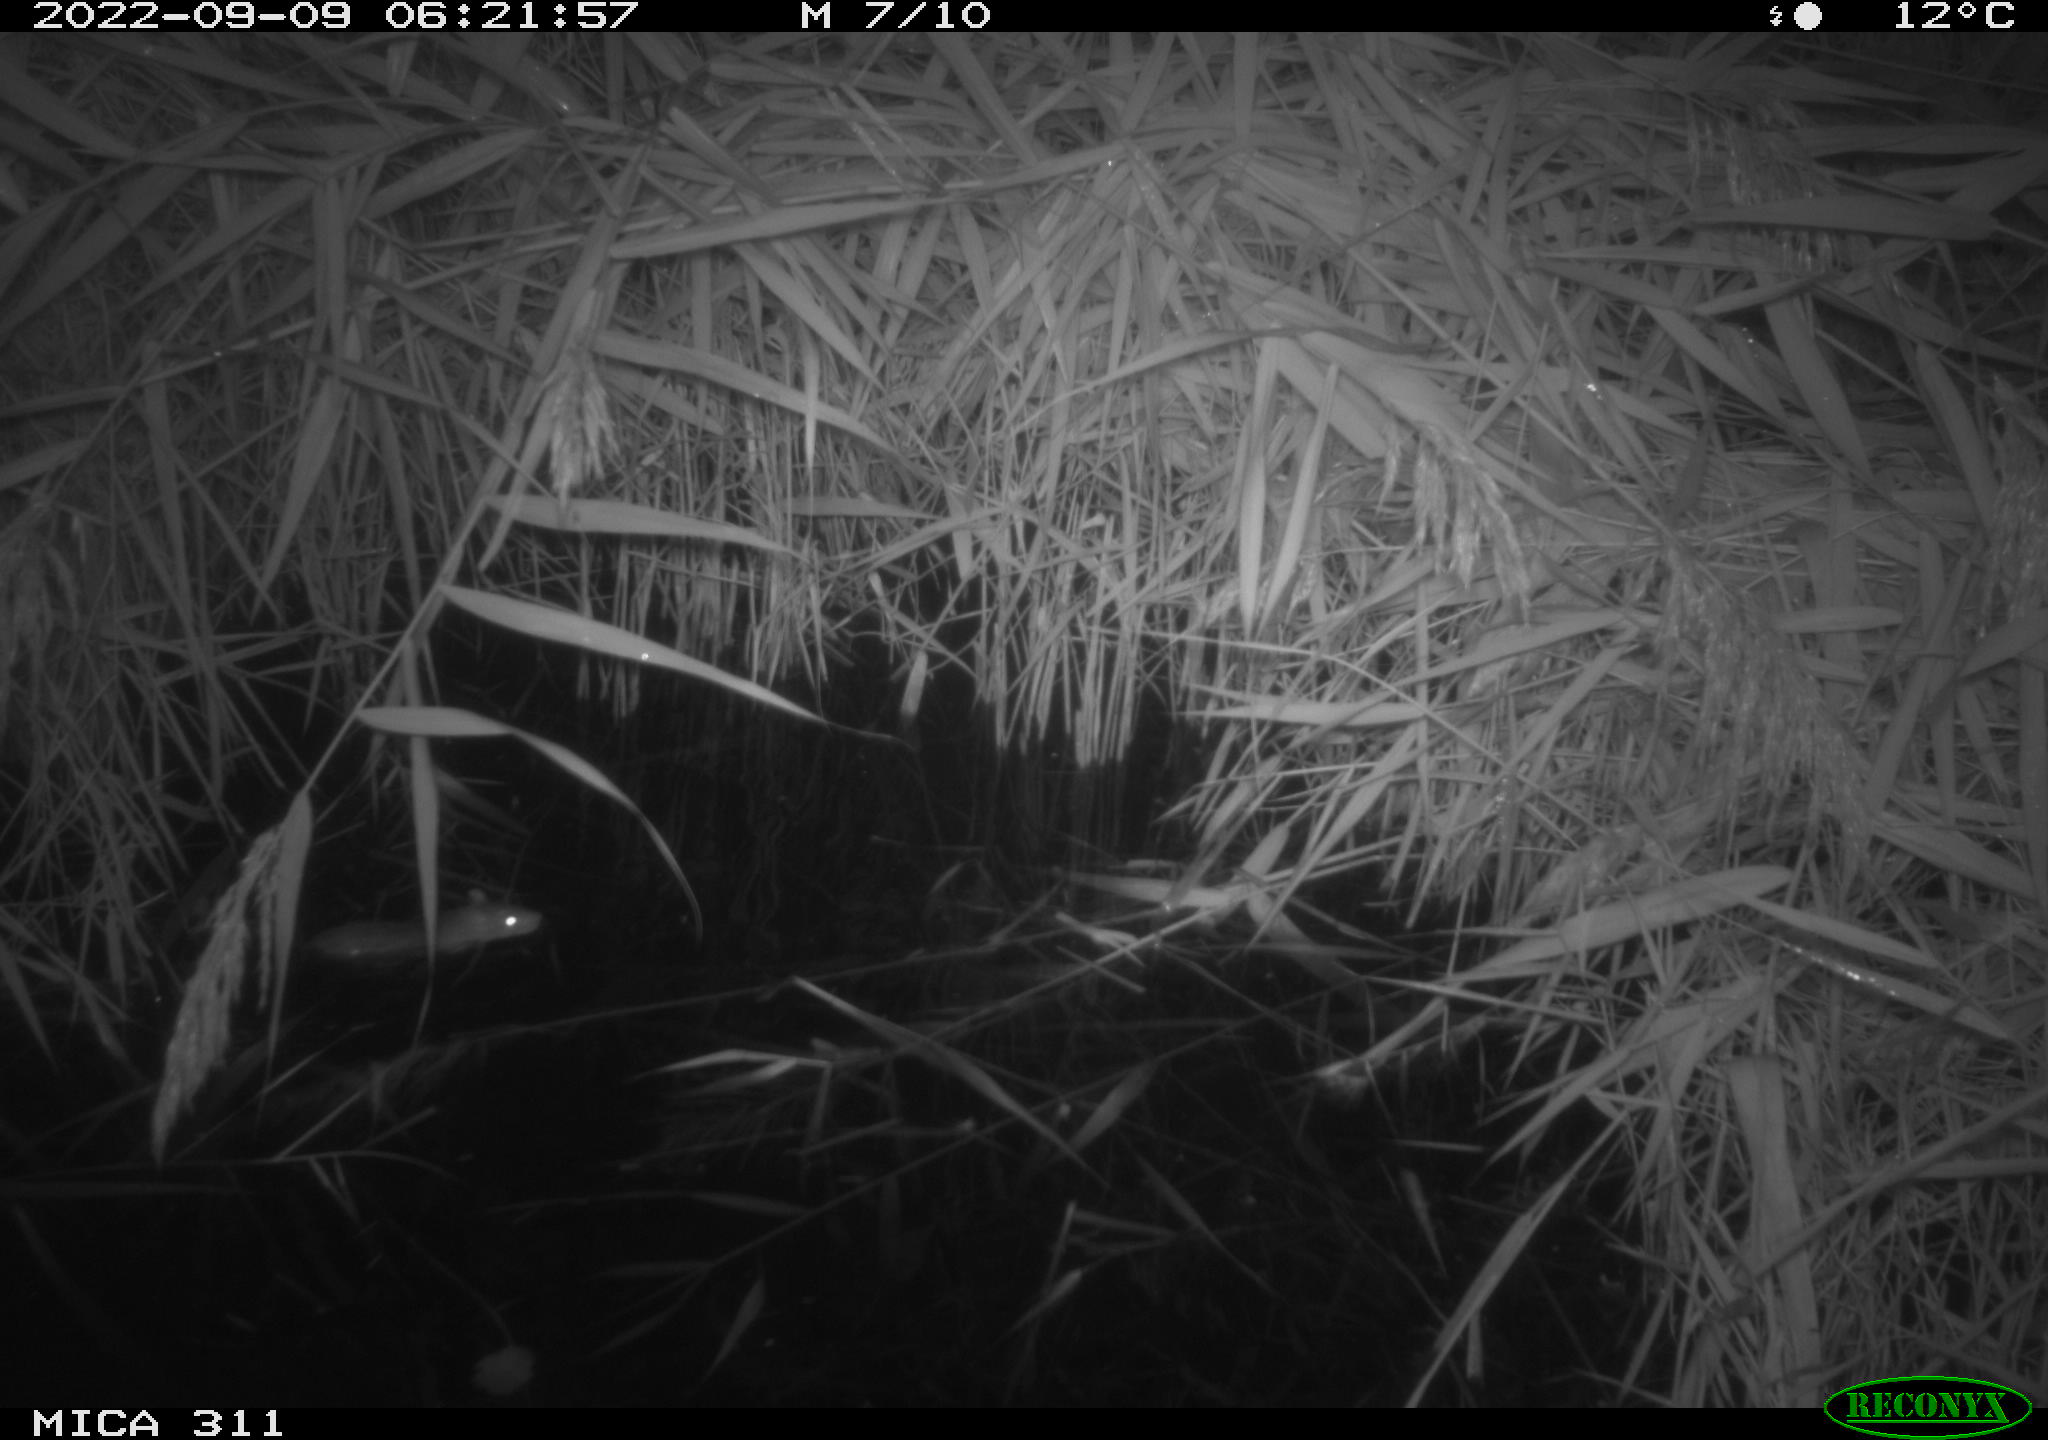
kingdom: Animalia
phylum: Chordata
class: Mammalia
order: Rodentia
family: Muridae
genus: Rattus
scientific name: Rattus norvegicus
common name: Brown rat
